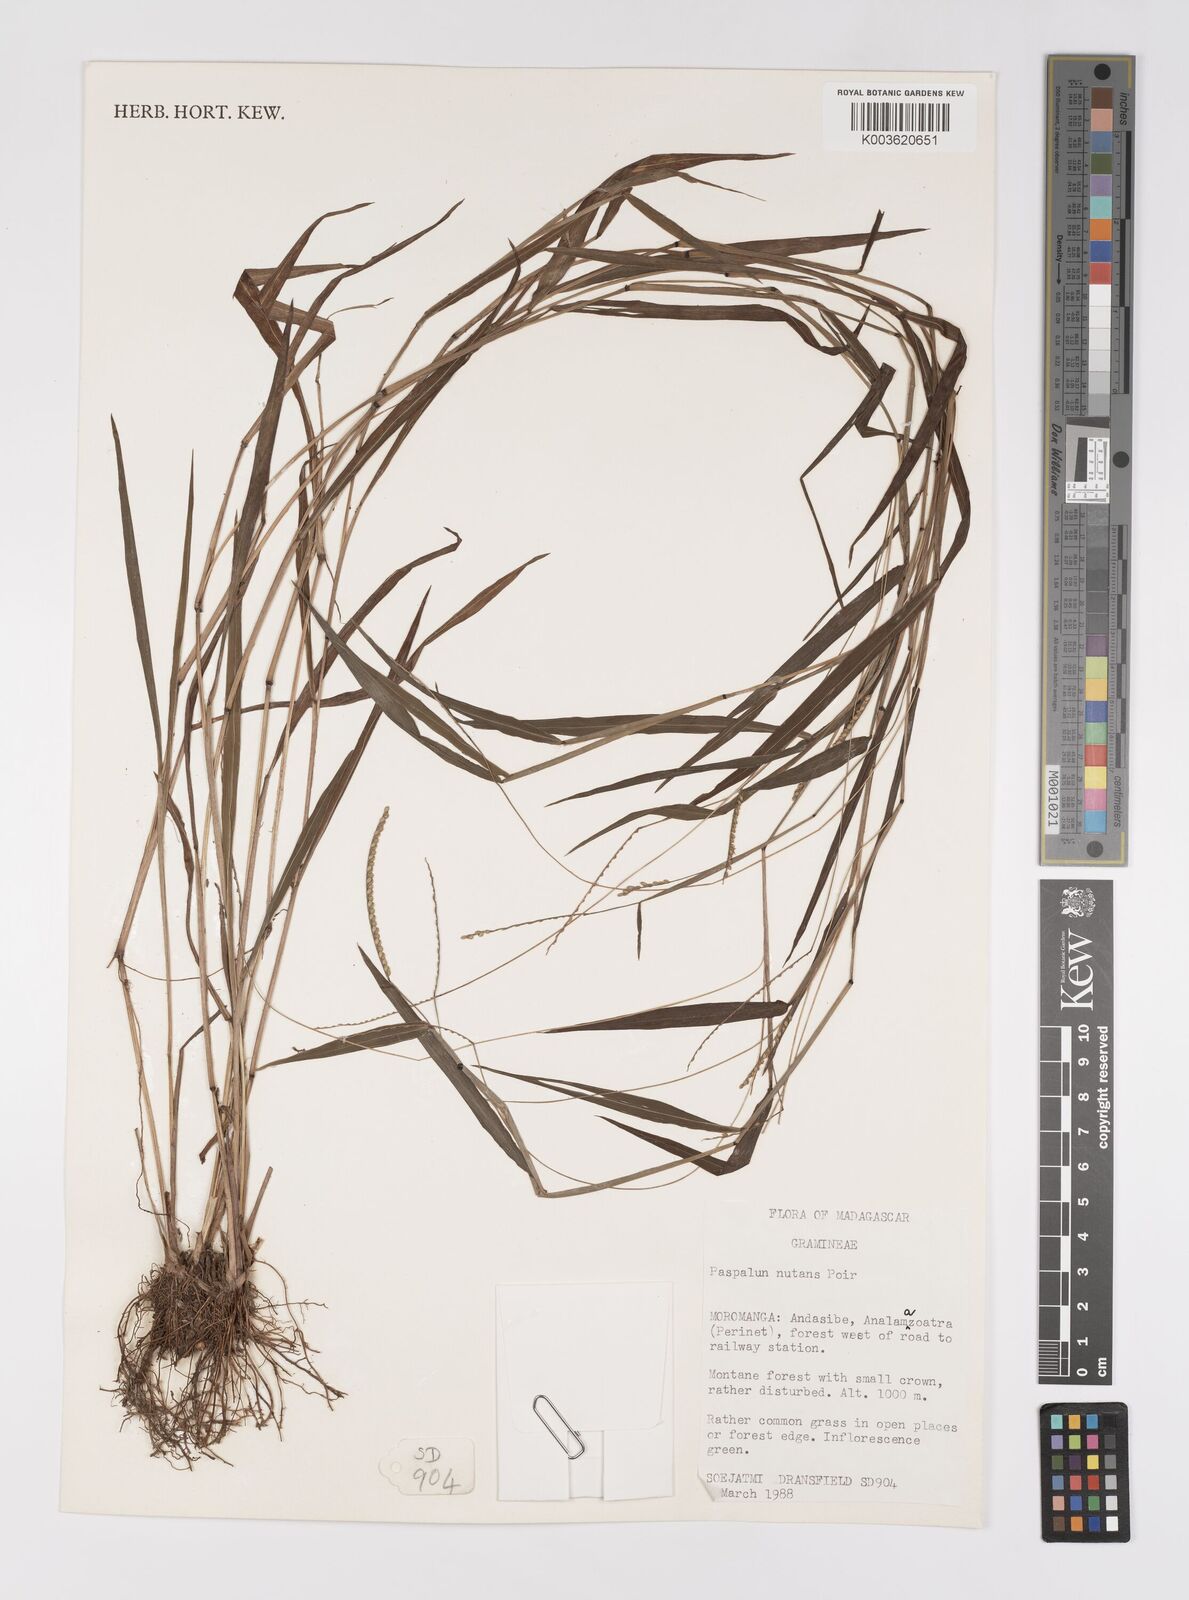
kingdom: Plantae
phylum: Tracheophyta
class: Liliopsida
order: Poales
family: Poaceae
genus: Paspalum
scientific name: Paspalum nutans
